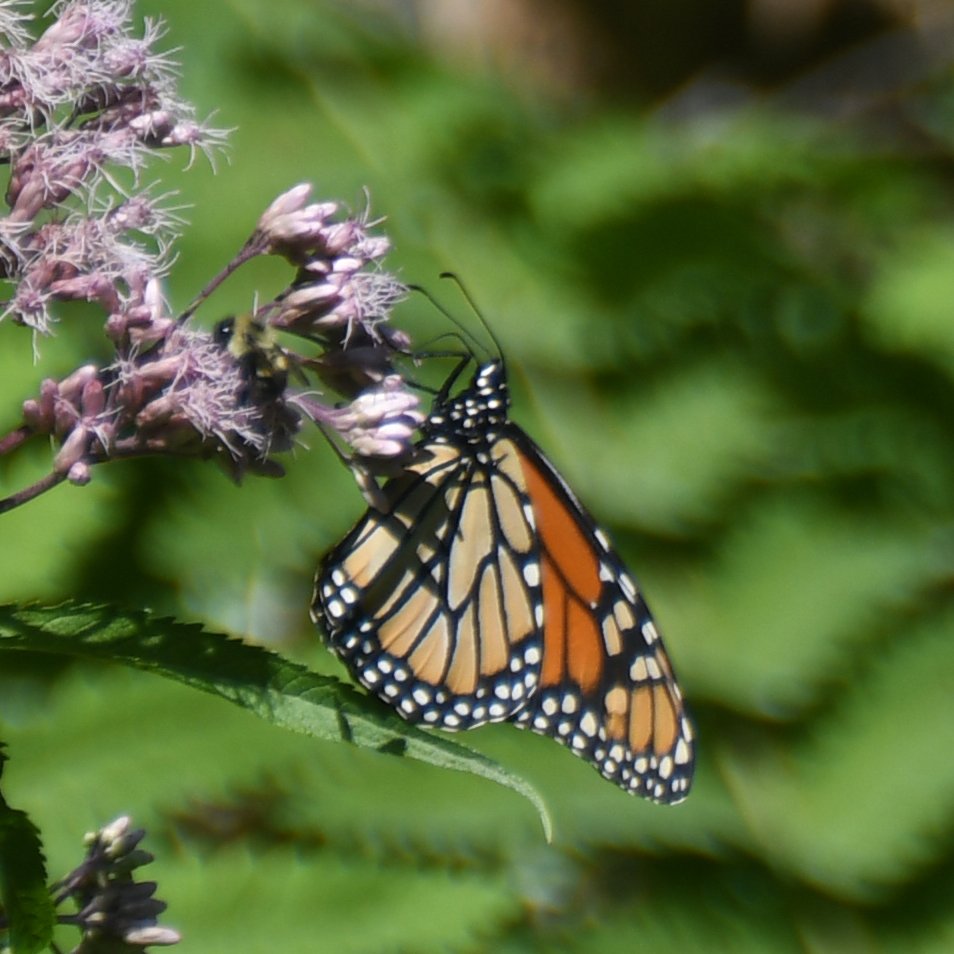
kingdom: Animalia
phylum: Arthropoda
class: Insecta
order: Lepidoptera
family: Nymphalidae
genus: Danaus
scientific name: Danaus plexippus
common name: Monarch
